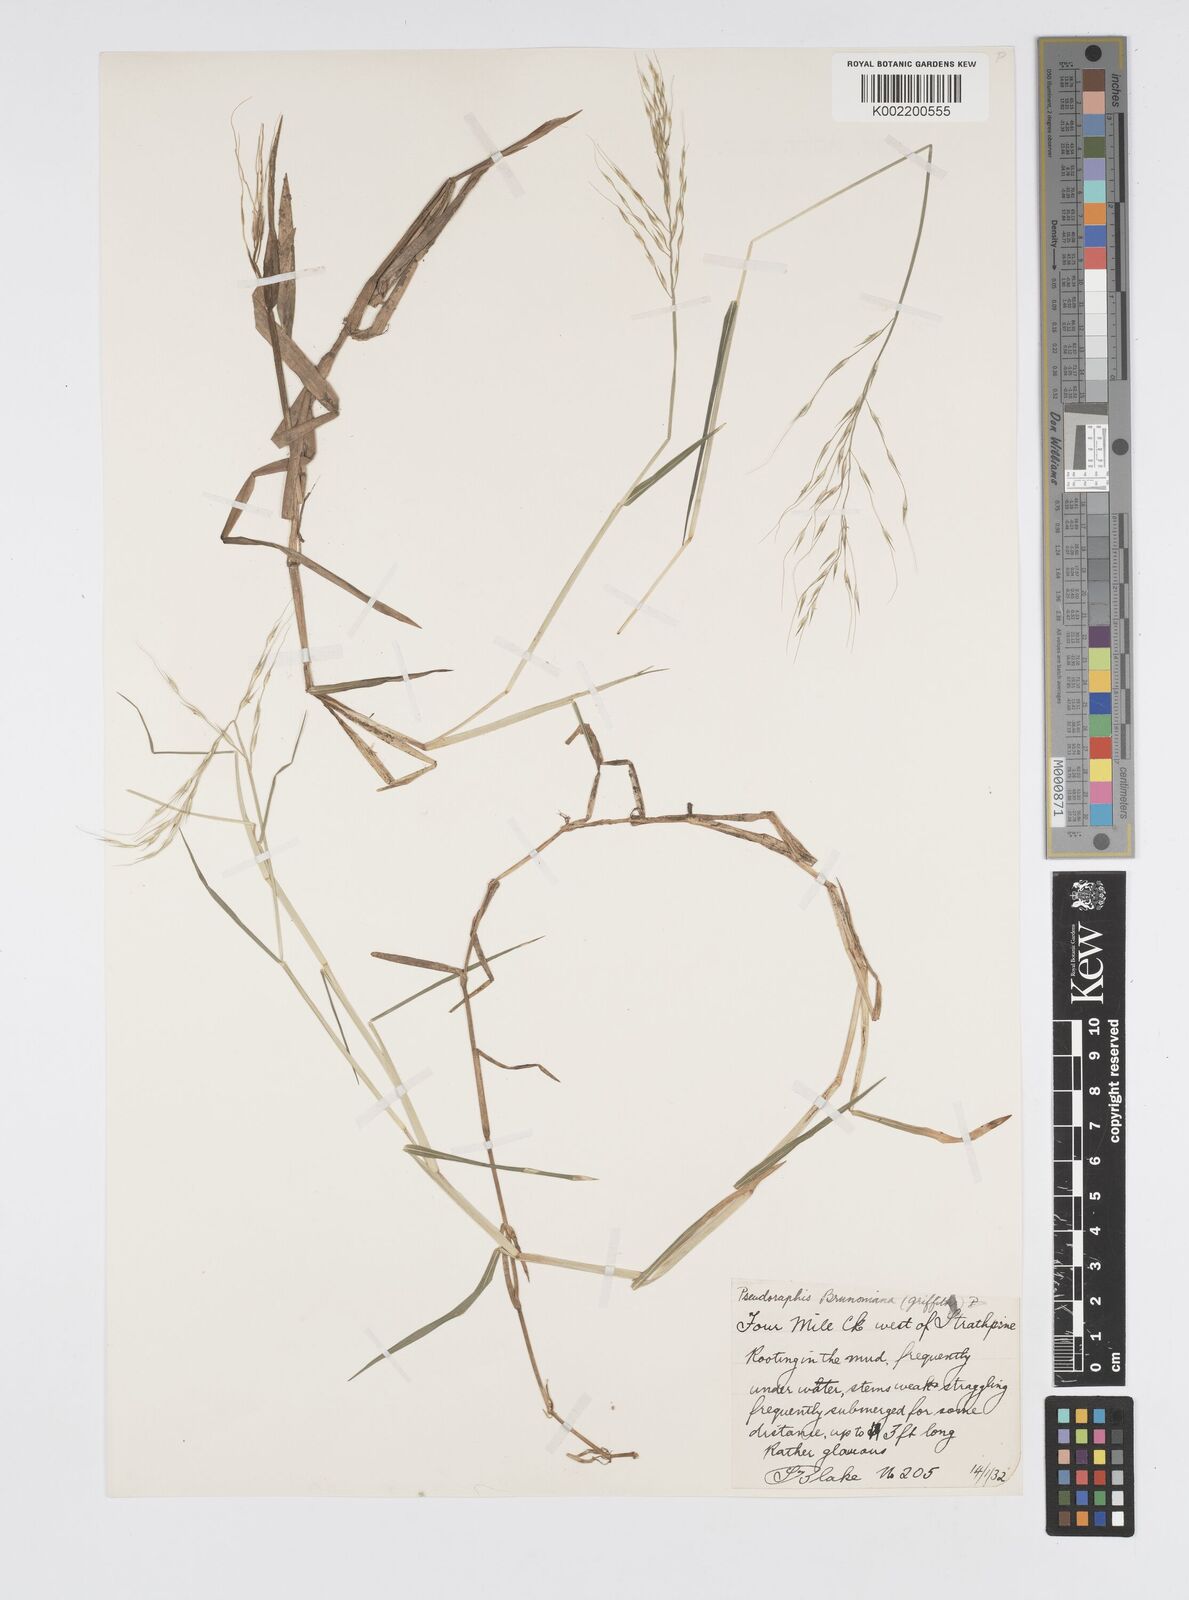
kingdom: Plantae
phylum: Tracheophyta
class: Liliopsida
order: Poales
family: Poaceae
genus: Pseudoraphis
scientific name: Pseudoraphis brunoniana
